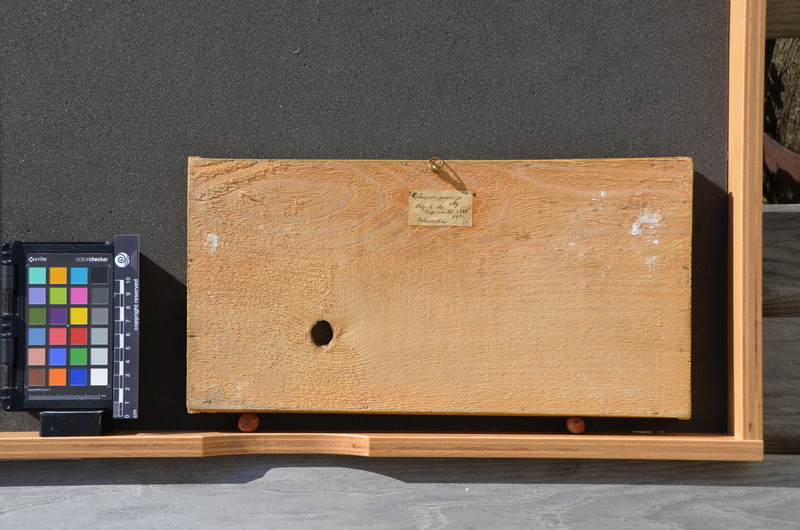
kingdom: Animalia
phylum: Chordata
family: Ophiopsiellidae
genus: Ophiopsiella
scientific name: Ophiopsiella procera
